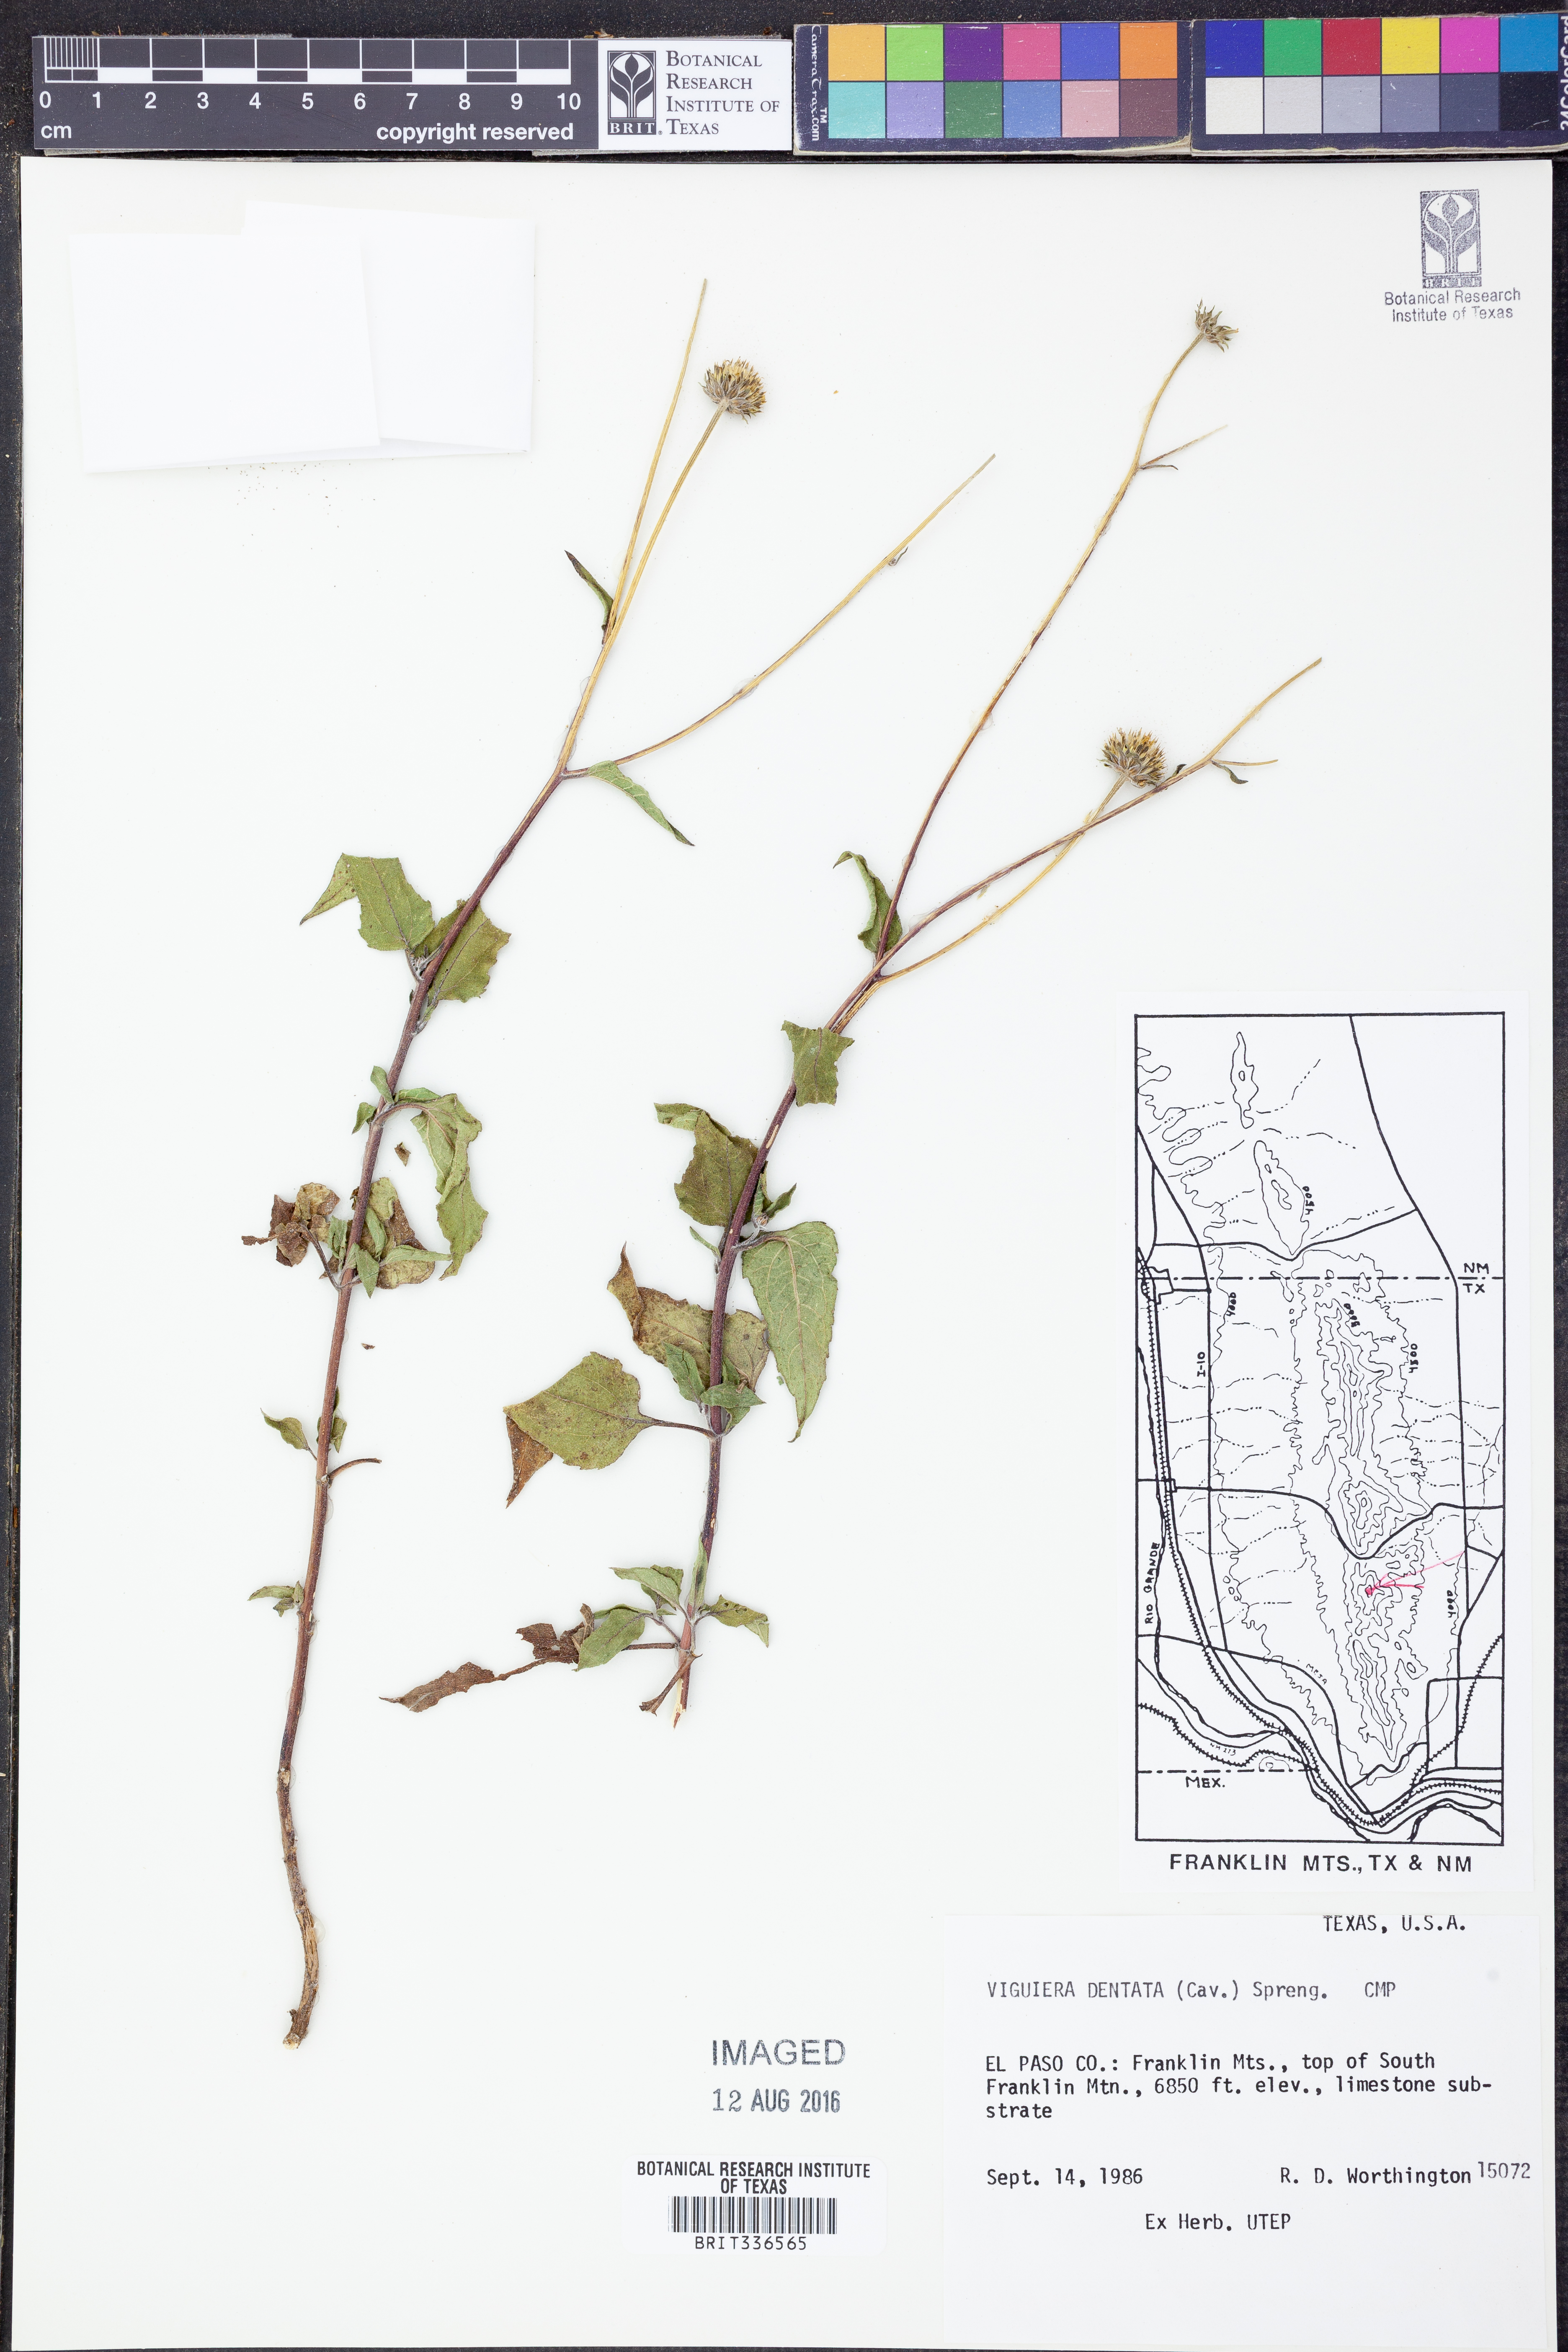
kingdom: Plantae
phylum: Tracheophyta
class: Magnoliopsida
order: Asterales
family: Asteraceae
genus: Viguiera
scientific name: Viguiera dentata
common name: Toothleaf
